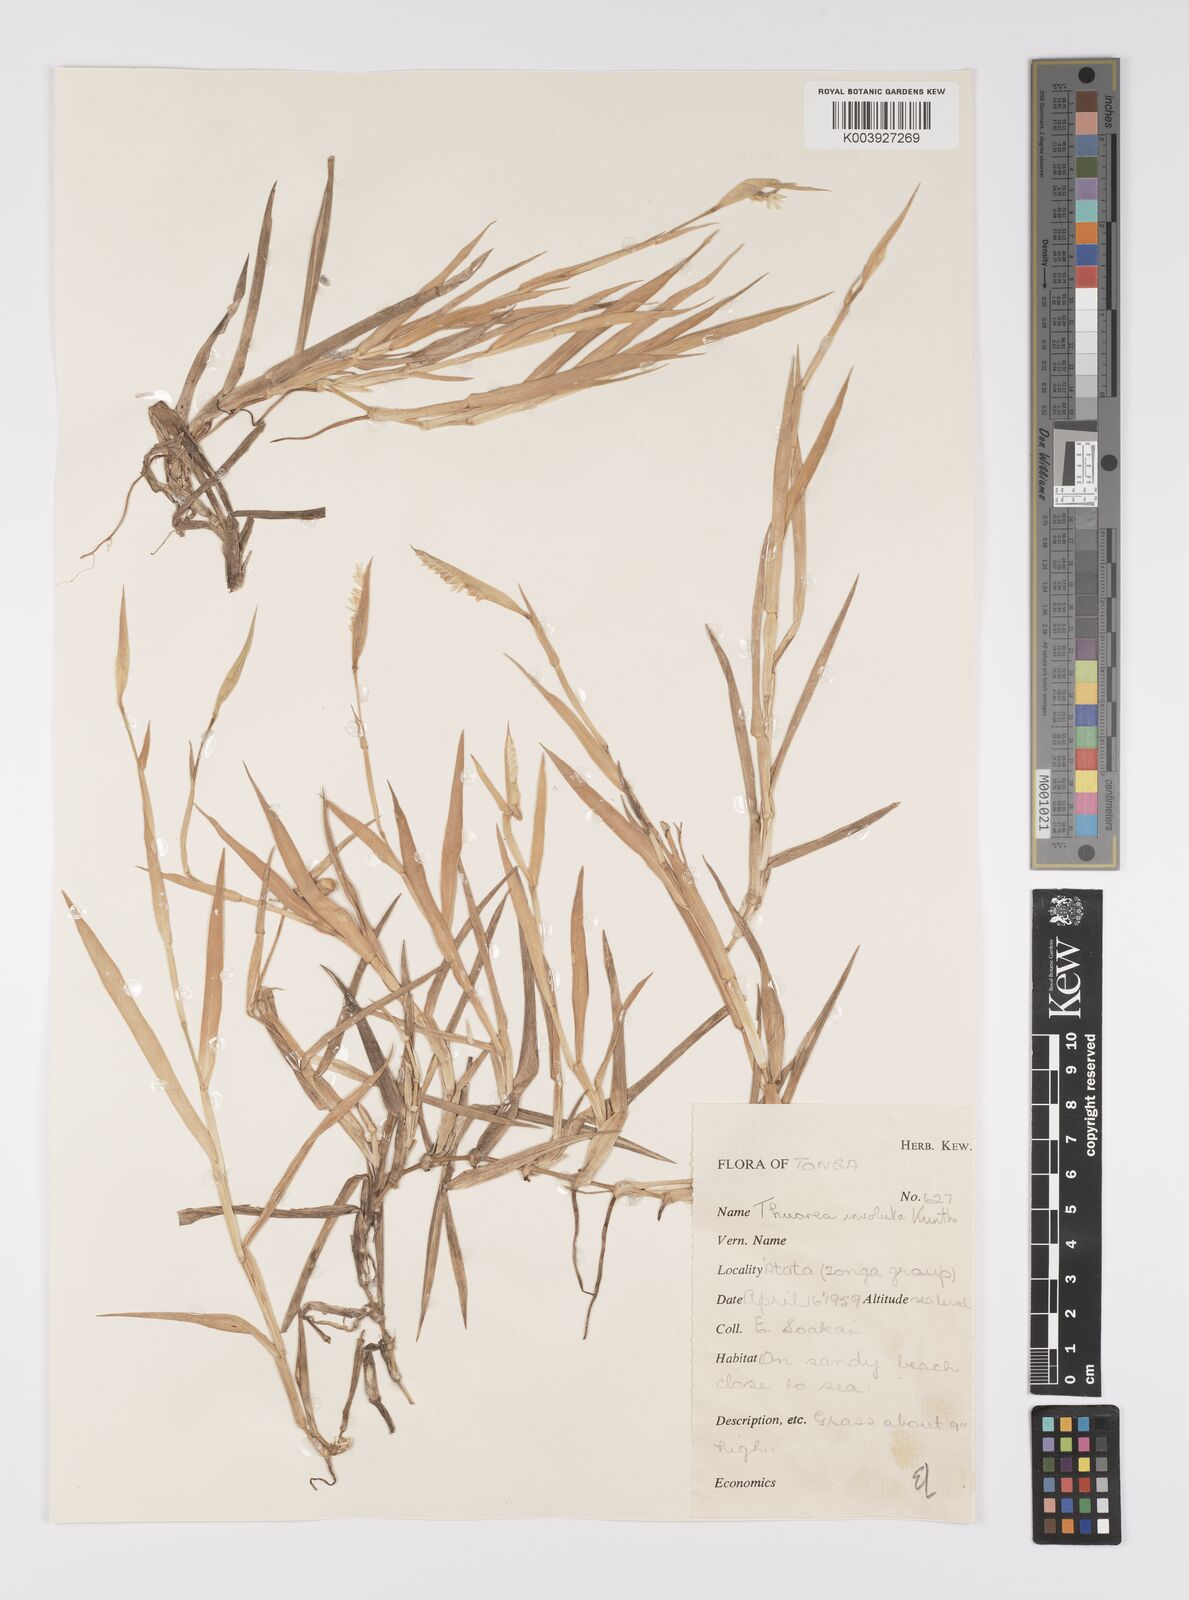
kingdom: Plantae
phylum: Tracheophyta
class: Liliopsida
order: Poales
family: Poaceae
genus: Thuarea
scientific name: Thuarea involuta
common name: Tropical beach grass
